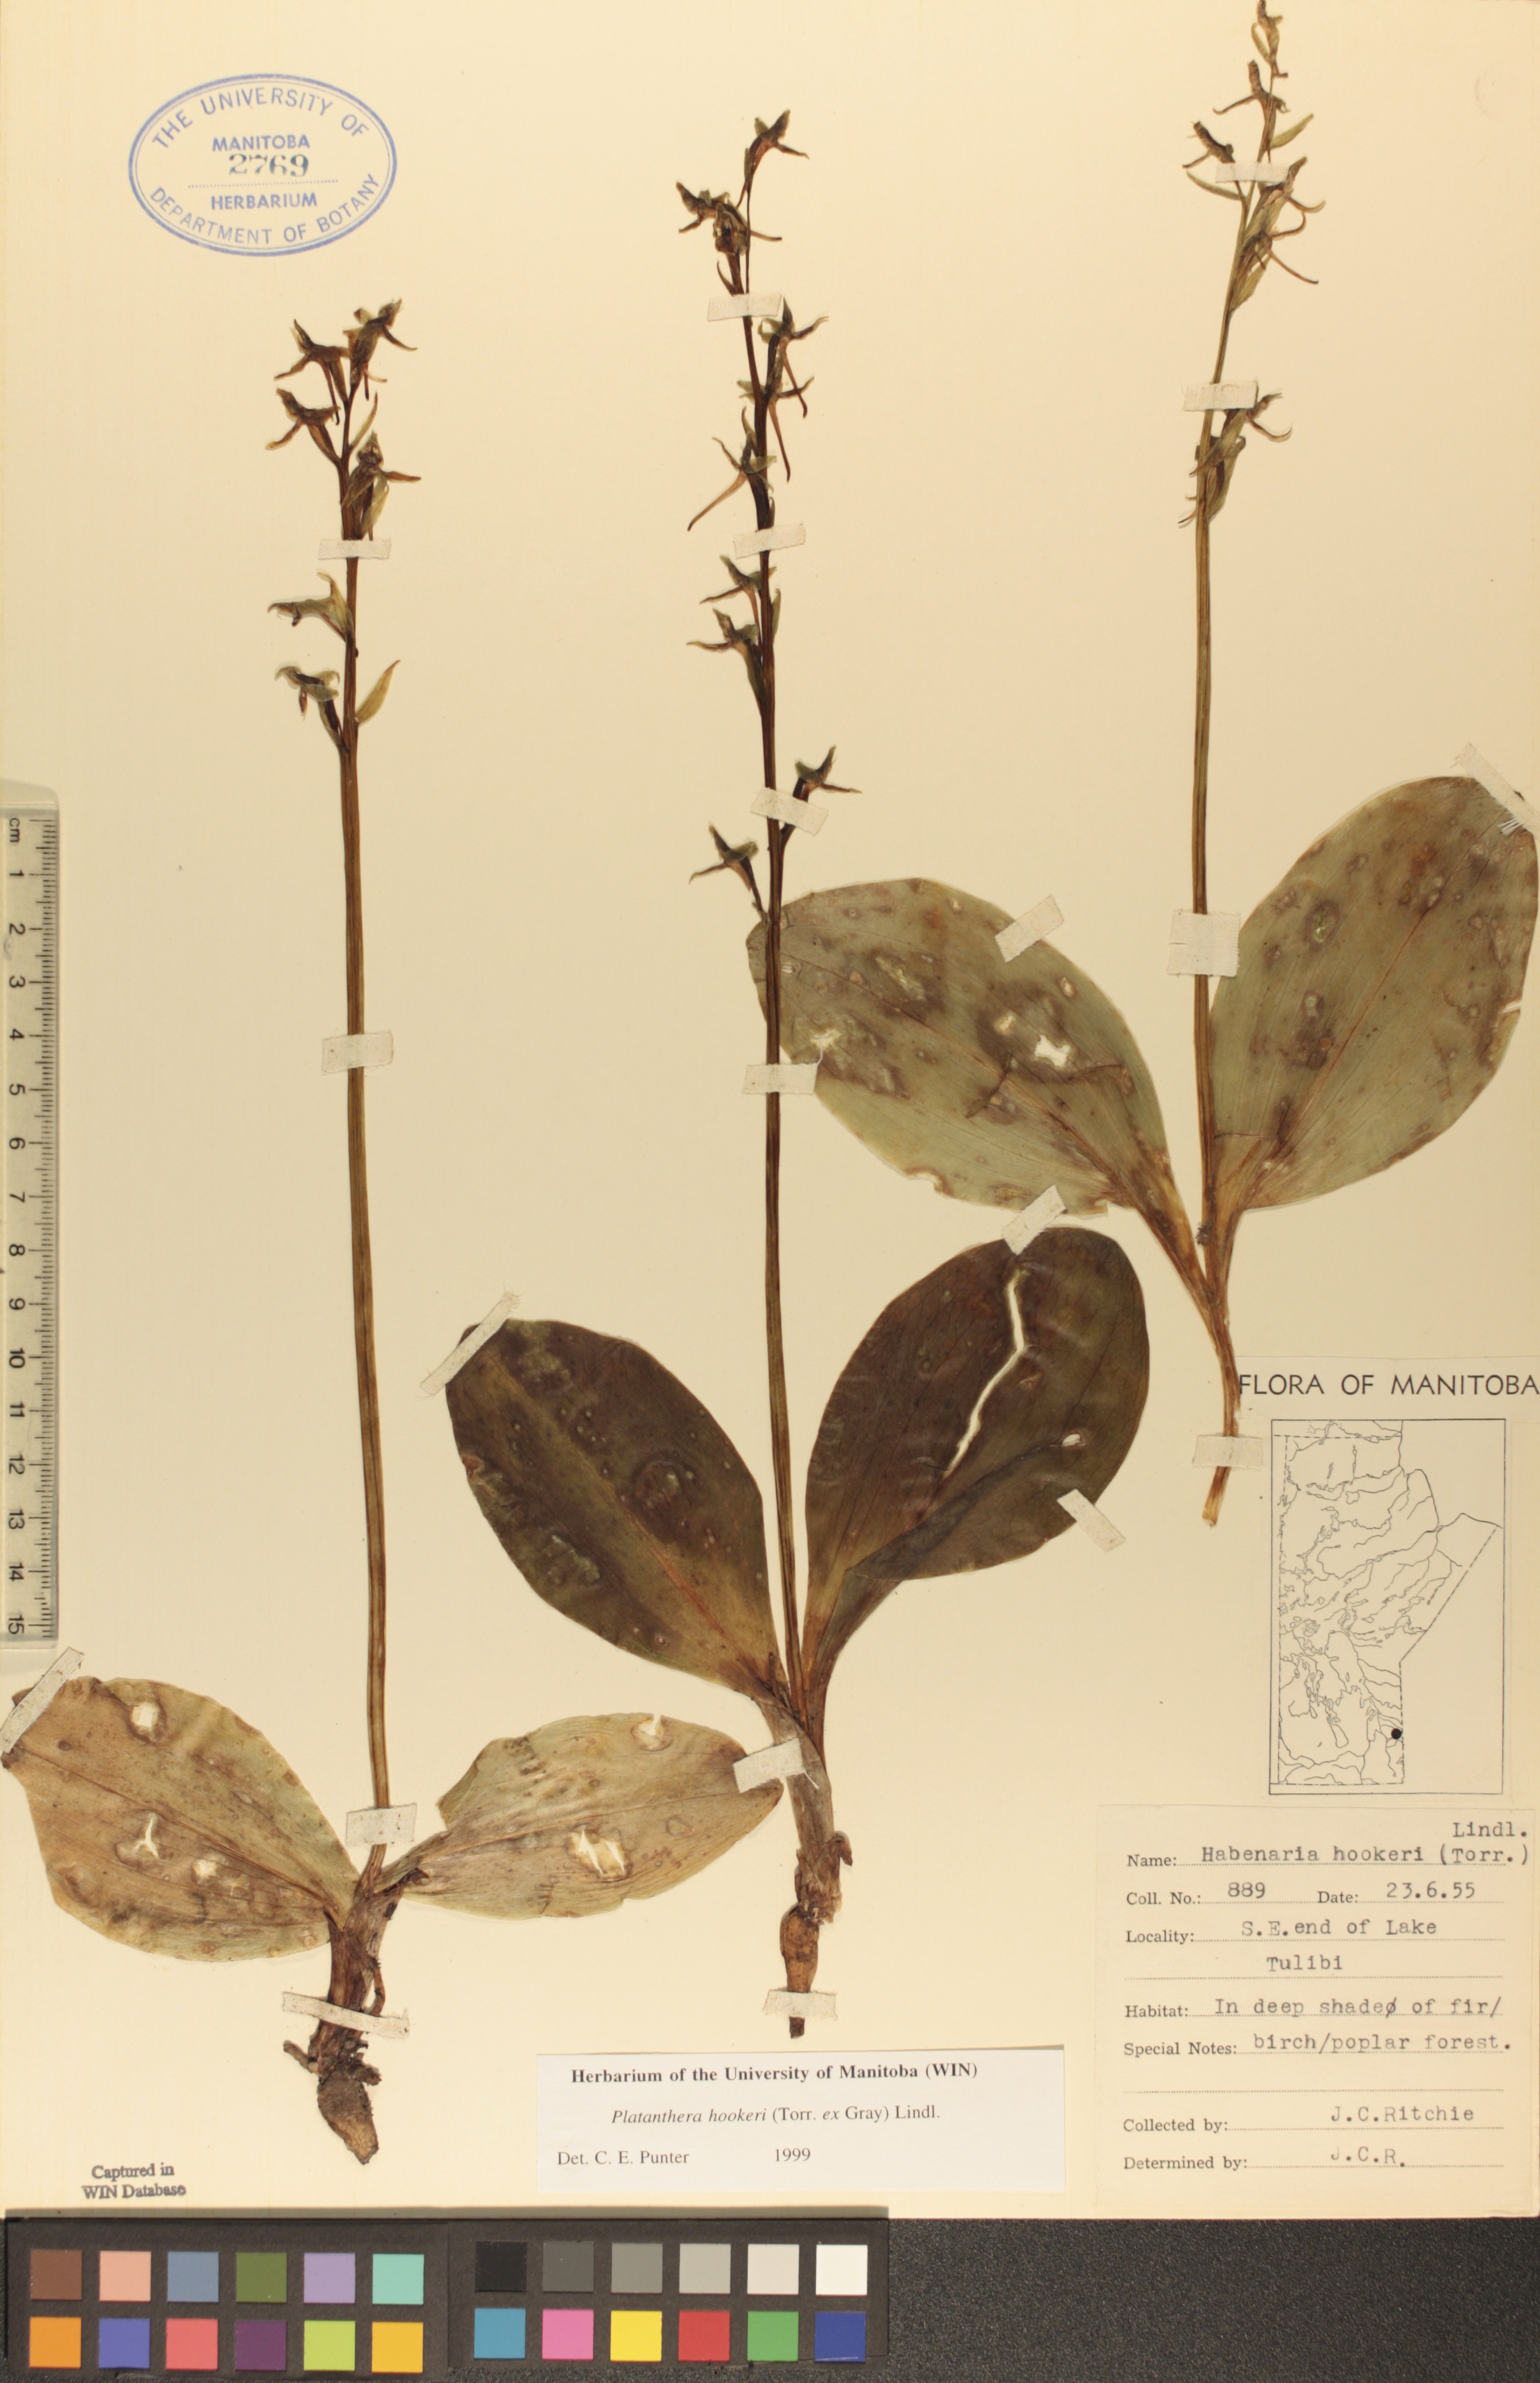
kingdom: Plantae
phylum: Tracheophyta
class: Liliopsida
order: Asparagales
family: Orchidaceae
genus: Platanthera
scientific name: Platanthera hookeri
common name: Hooker's orchid
